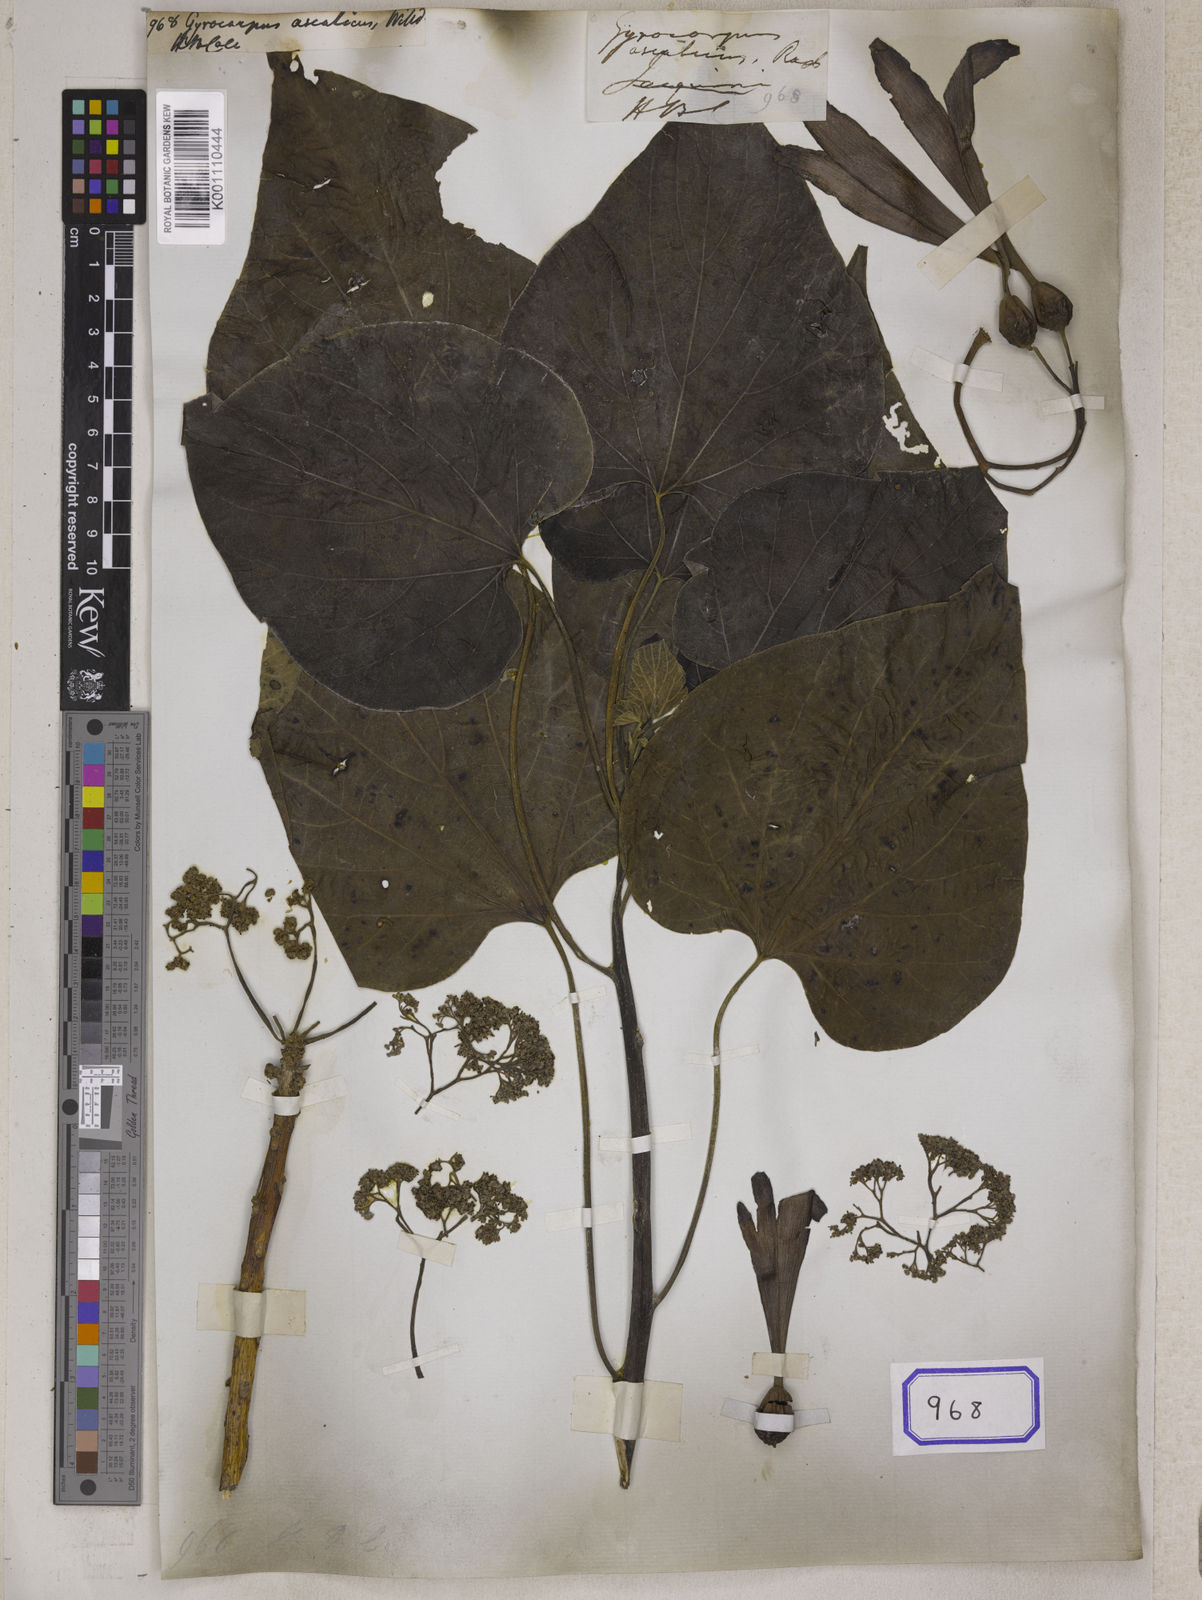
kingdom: Plantae
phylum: Tracheophyta
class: Magnoliopsida
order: Laurales
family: Hernandiaceae
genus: Gyrocarpus
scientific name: Gyrocarpus americanus
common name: Gyro damson
